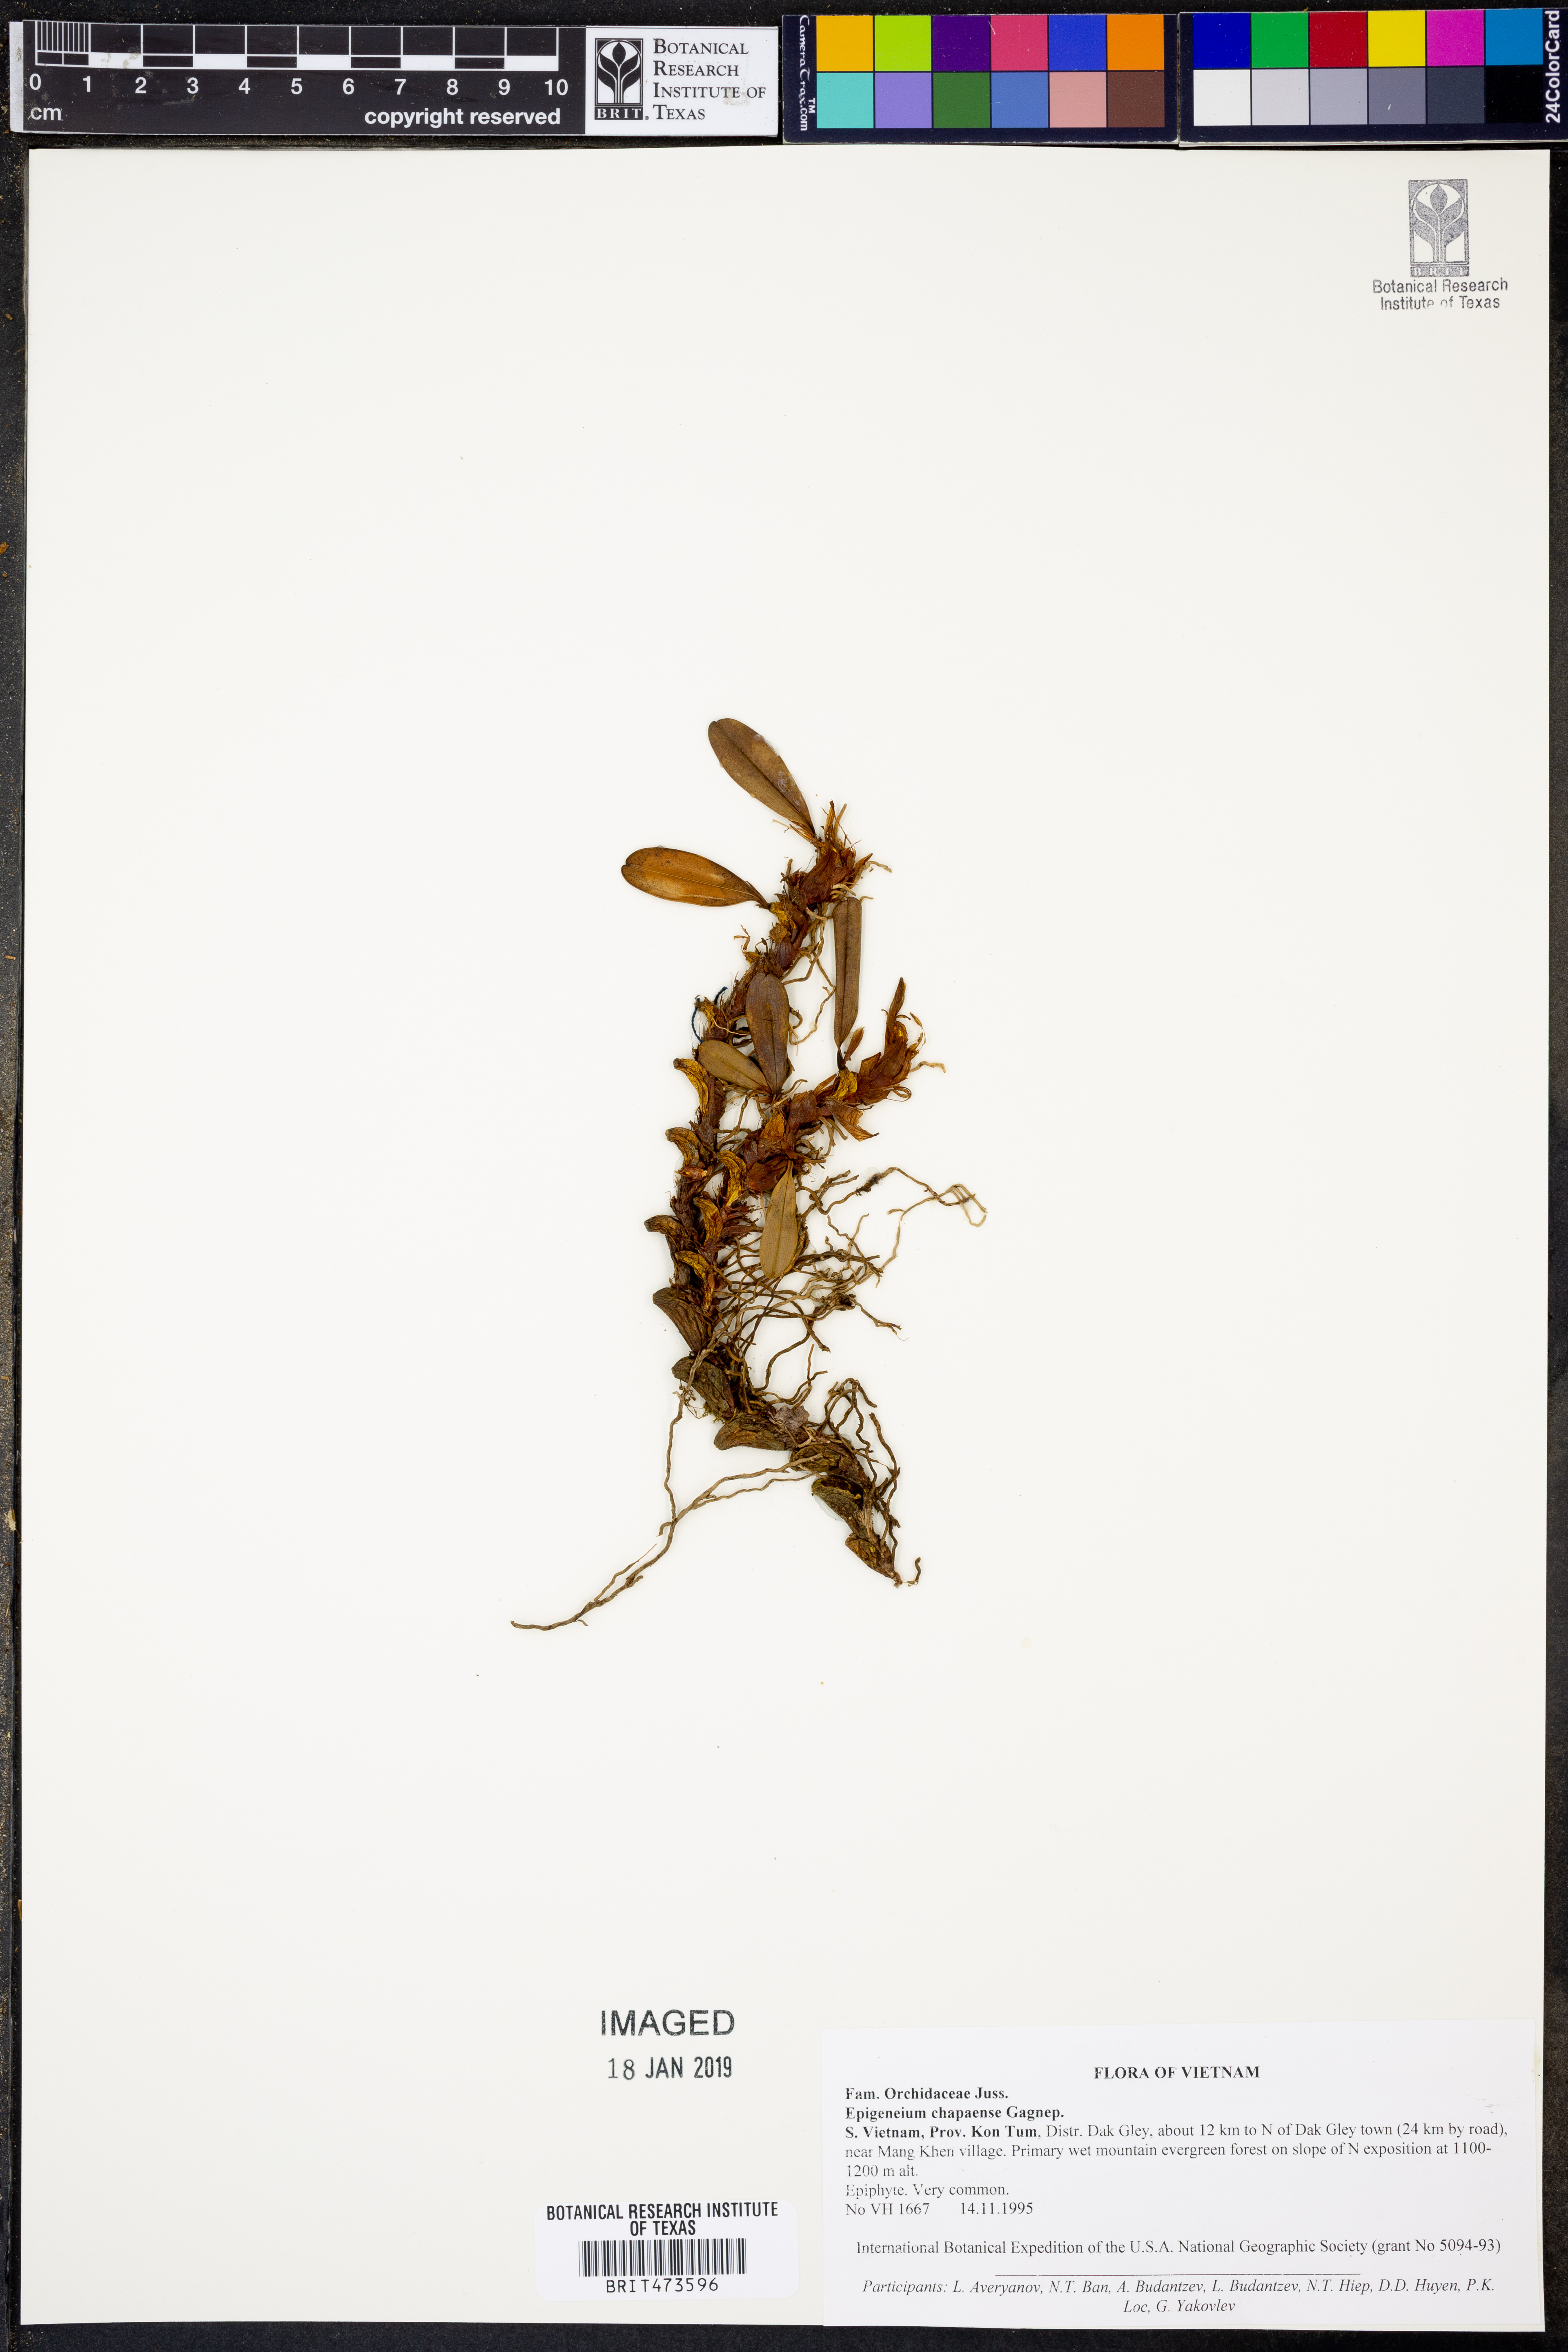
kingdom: Plantae
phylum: Tracheophyta
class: Liliopsida
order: Asparagales
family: Orchidaceae
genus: Dendrobium
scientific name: Dendrobium brunneum
